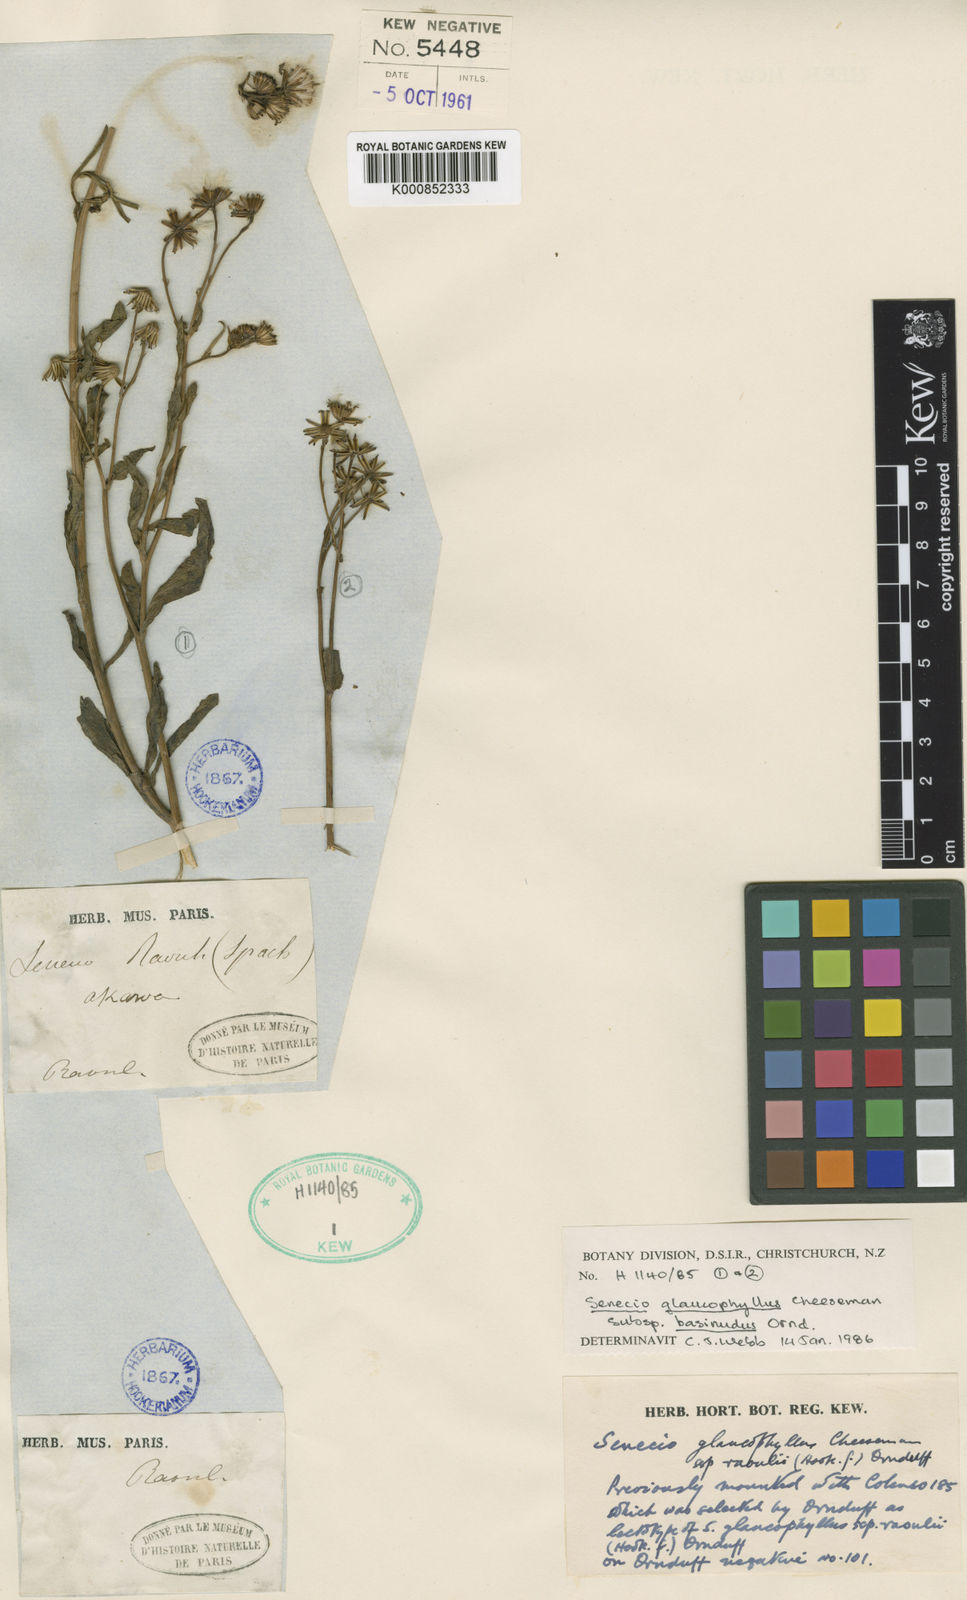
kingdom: Plantae
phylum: Tracheophyta
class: Magnoliopsida
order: Asterales
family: Asteraceae
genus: Senecio
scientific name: Senecio matatini
